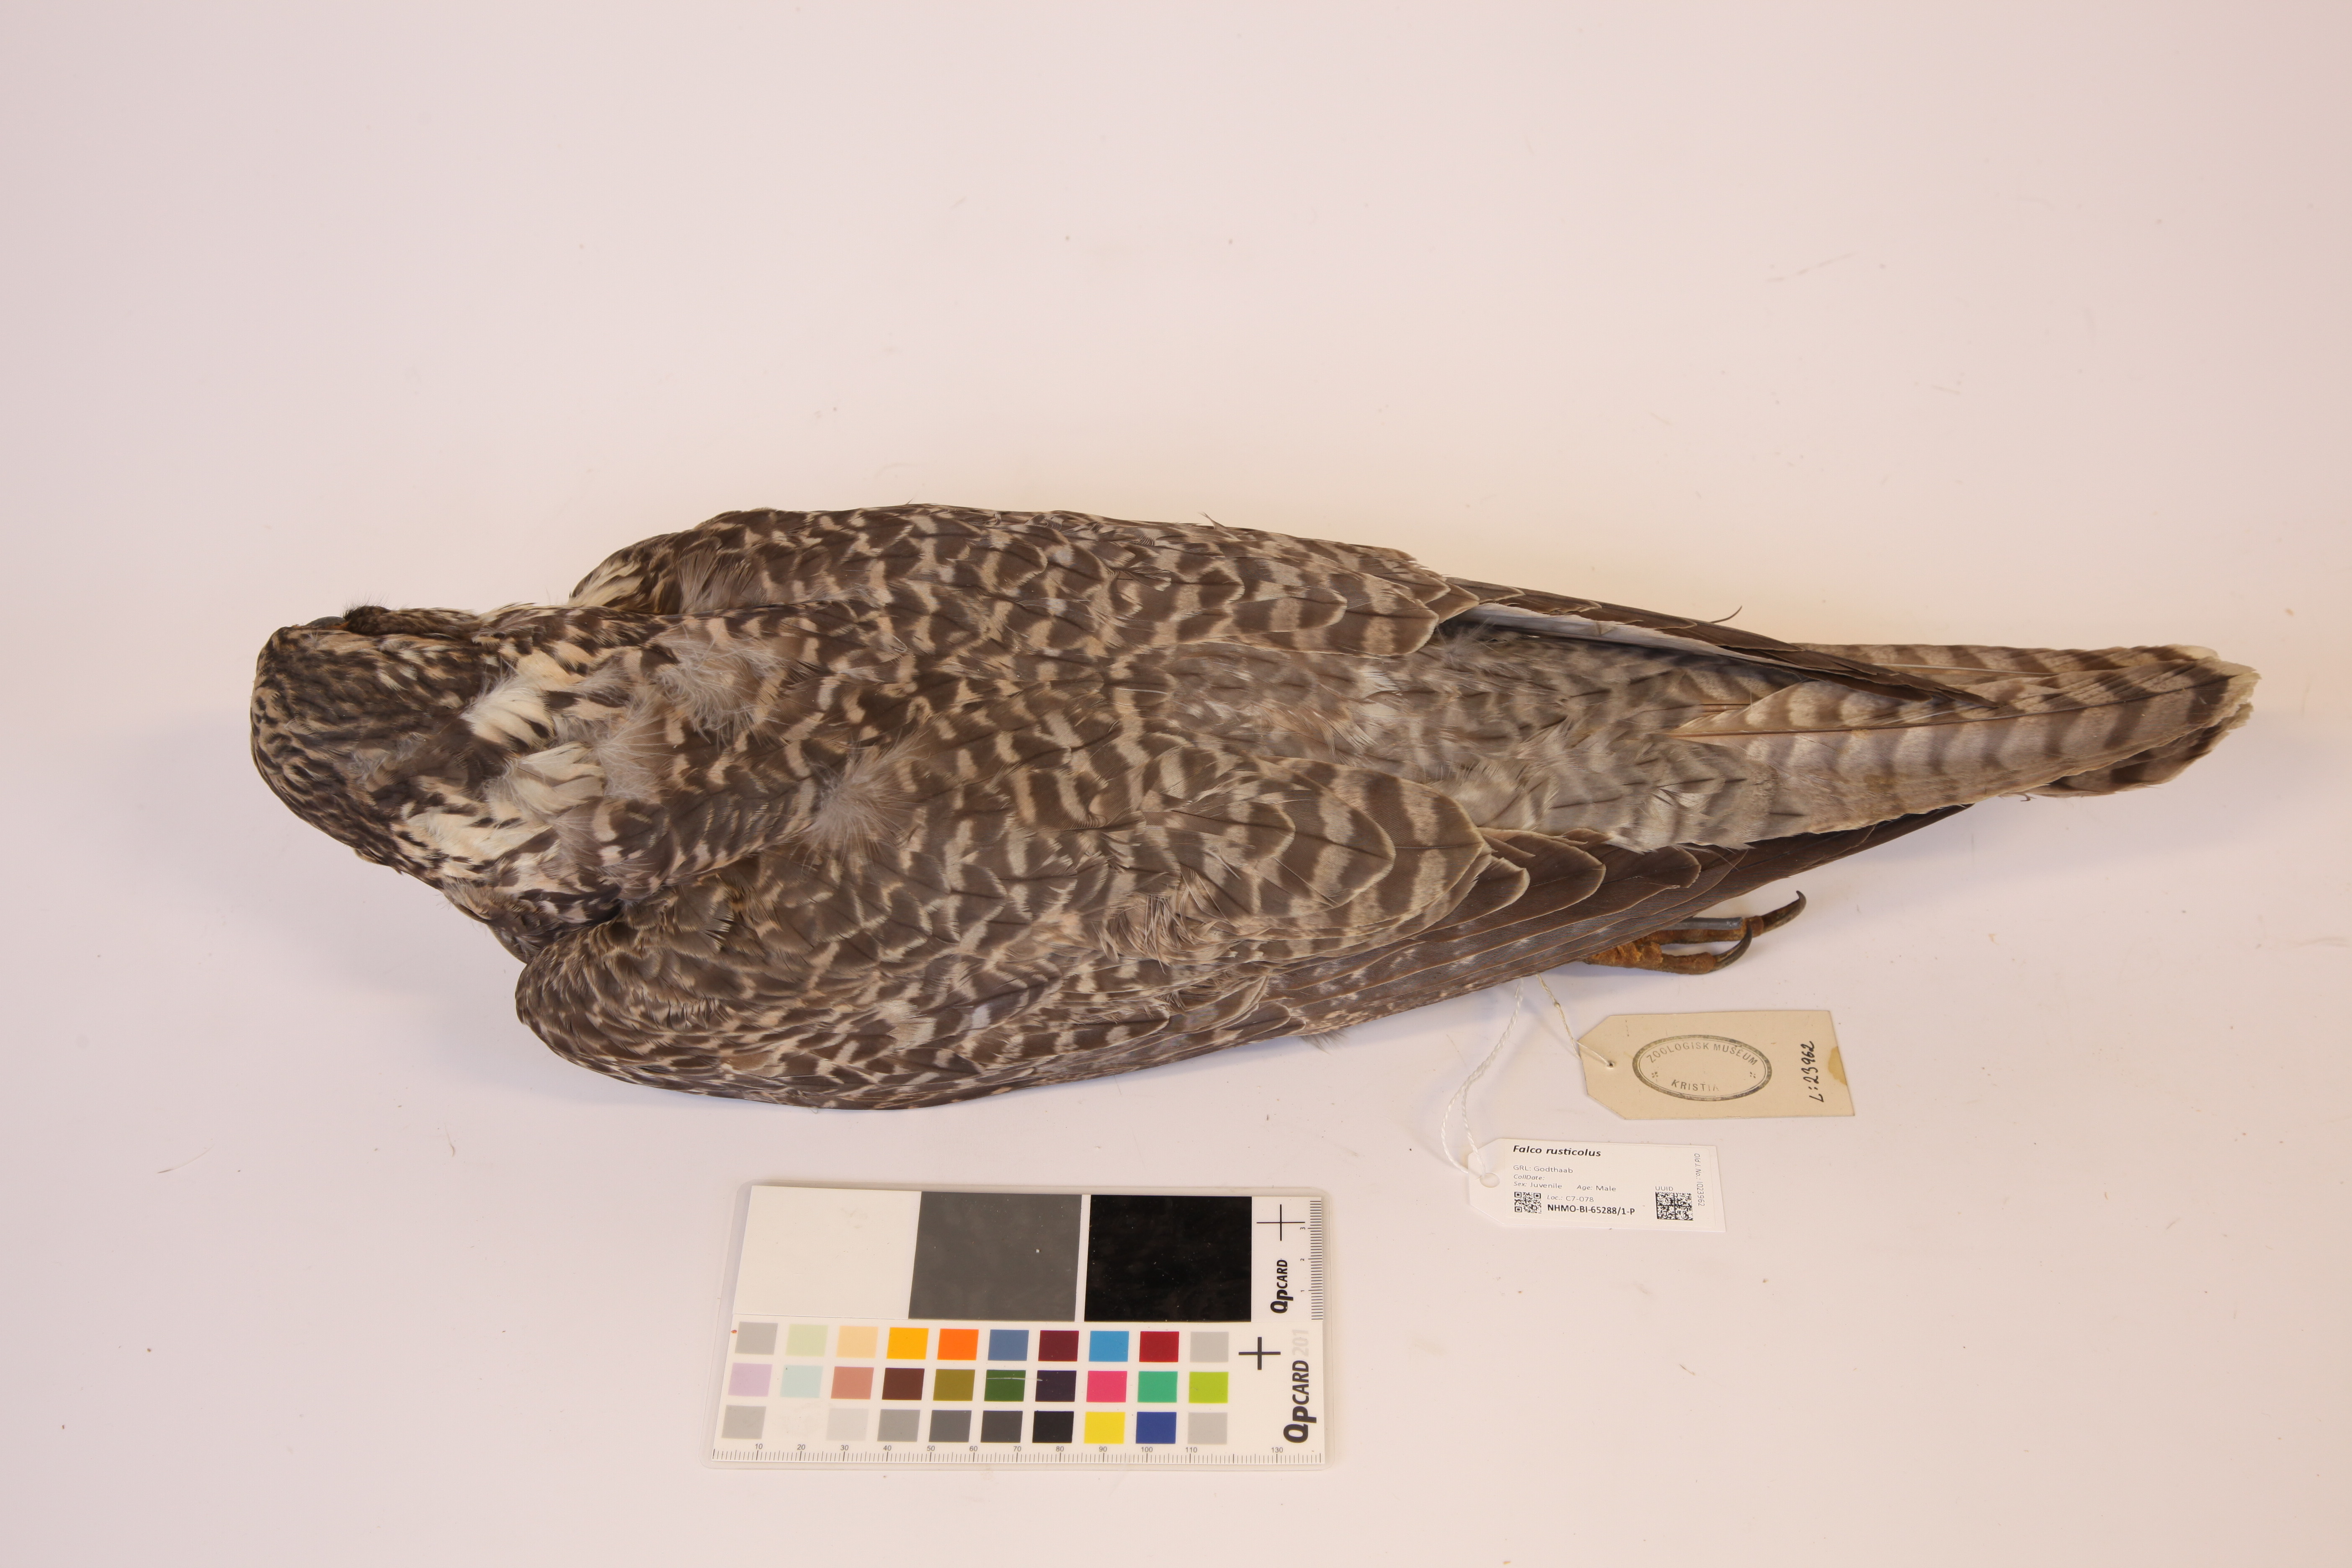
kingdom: Animalia
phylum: Chordata
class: Aves
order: Falconiformes
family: Falconidae
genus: Falco
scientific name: Falco rusticolus
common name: Gyrfalcon
